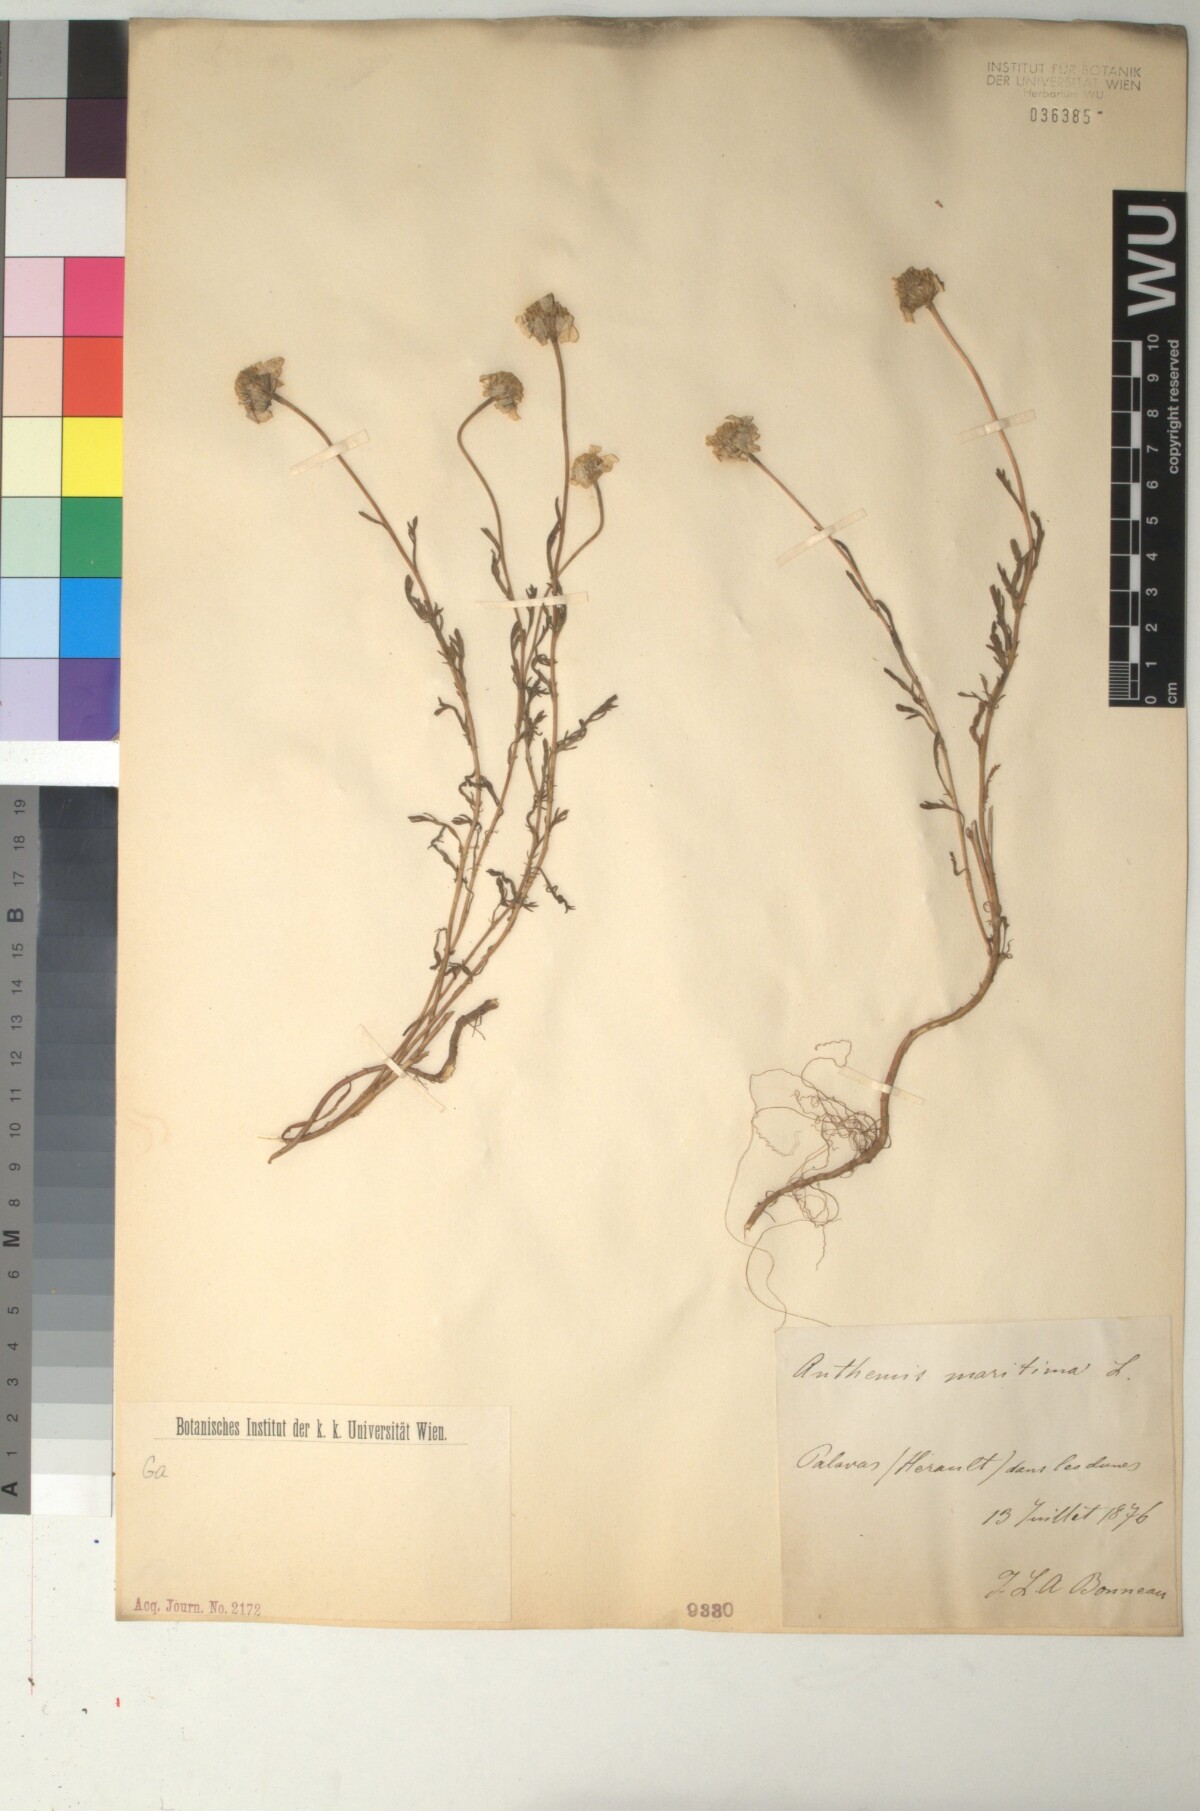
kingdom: Plantae
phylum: Tracheophyta
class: Magnoliopsida
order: Asterales
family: Asteraceae
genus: Anthemis
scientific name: Anthemis maritima
